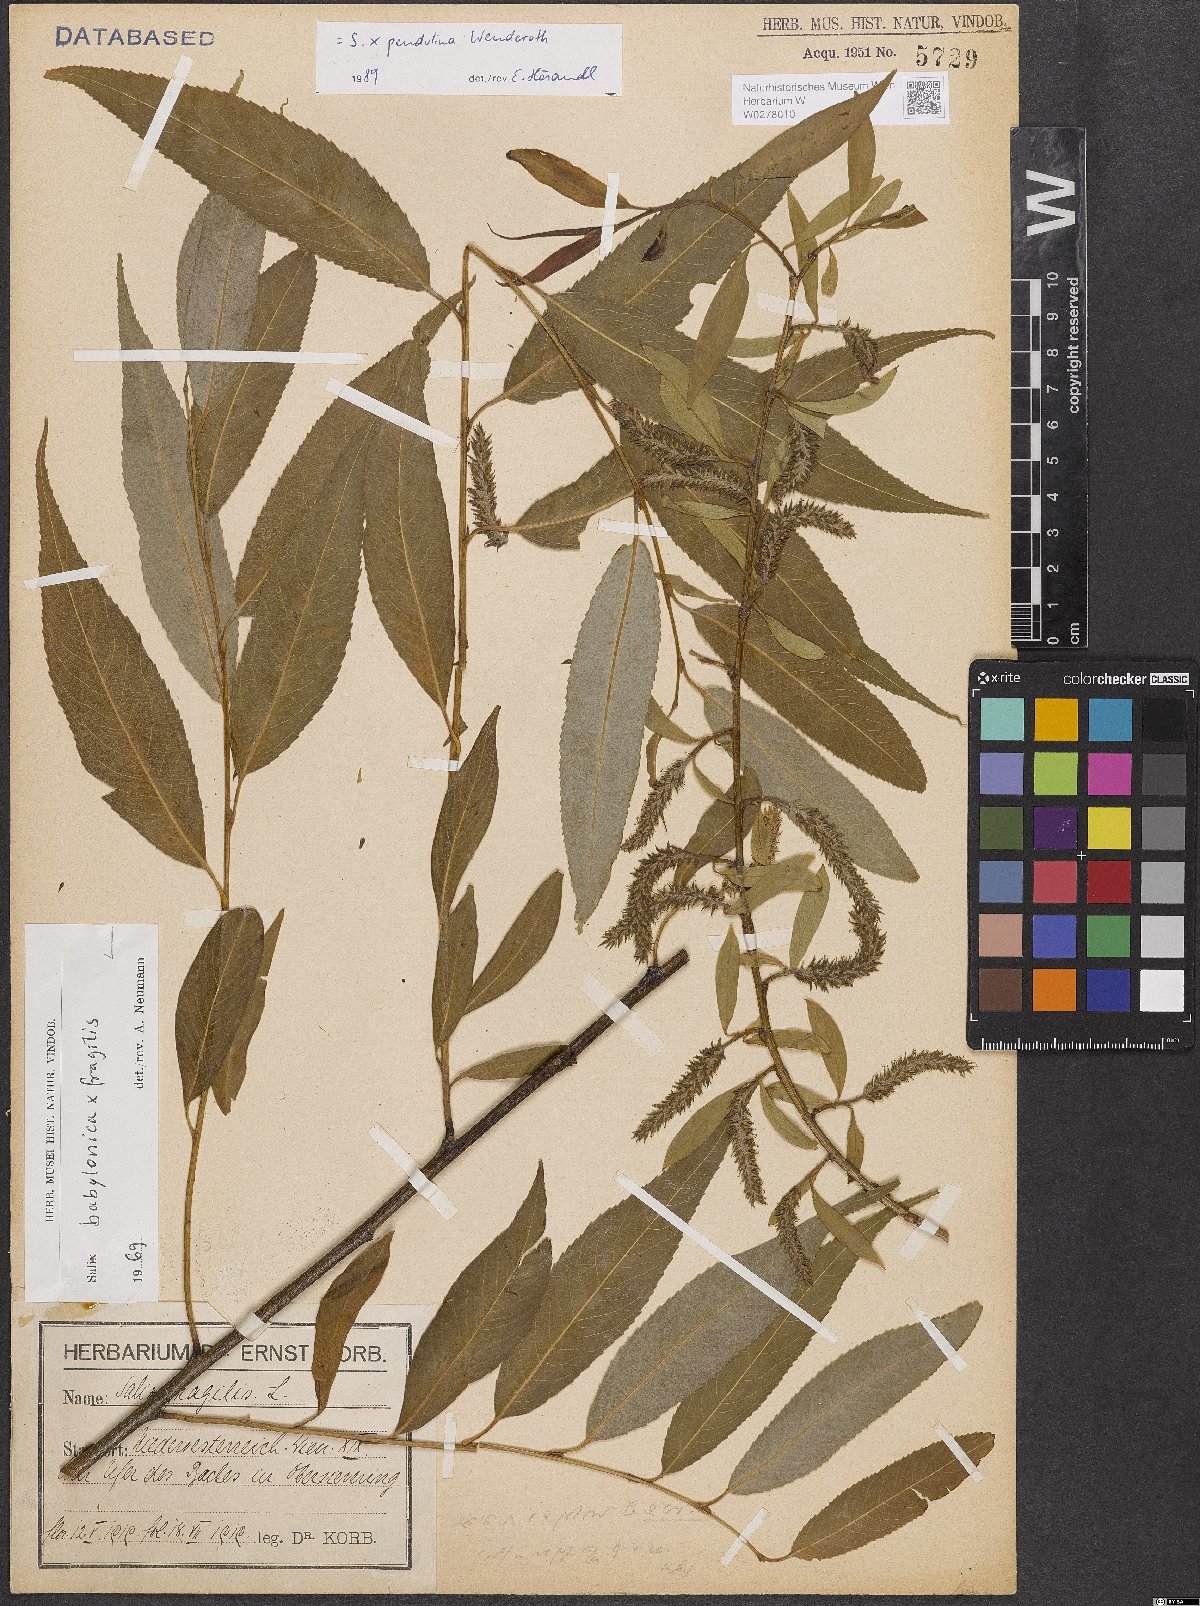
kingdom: Plantae
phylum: Tracheophyta
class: Magnoliopsida
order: Malpighiales
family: Salicaceae
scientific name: Salicaceae
